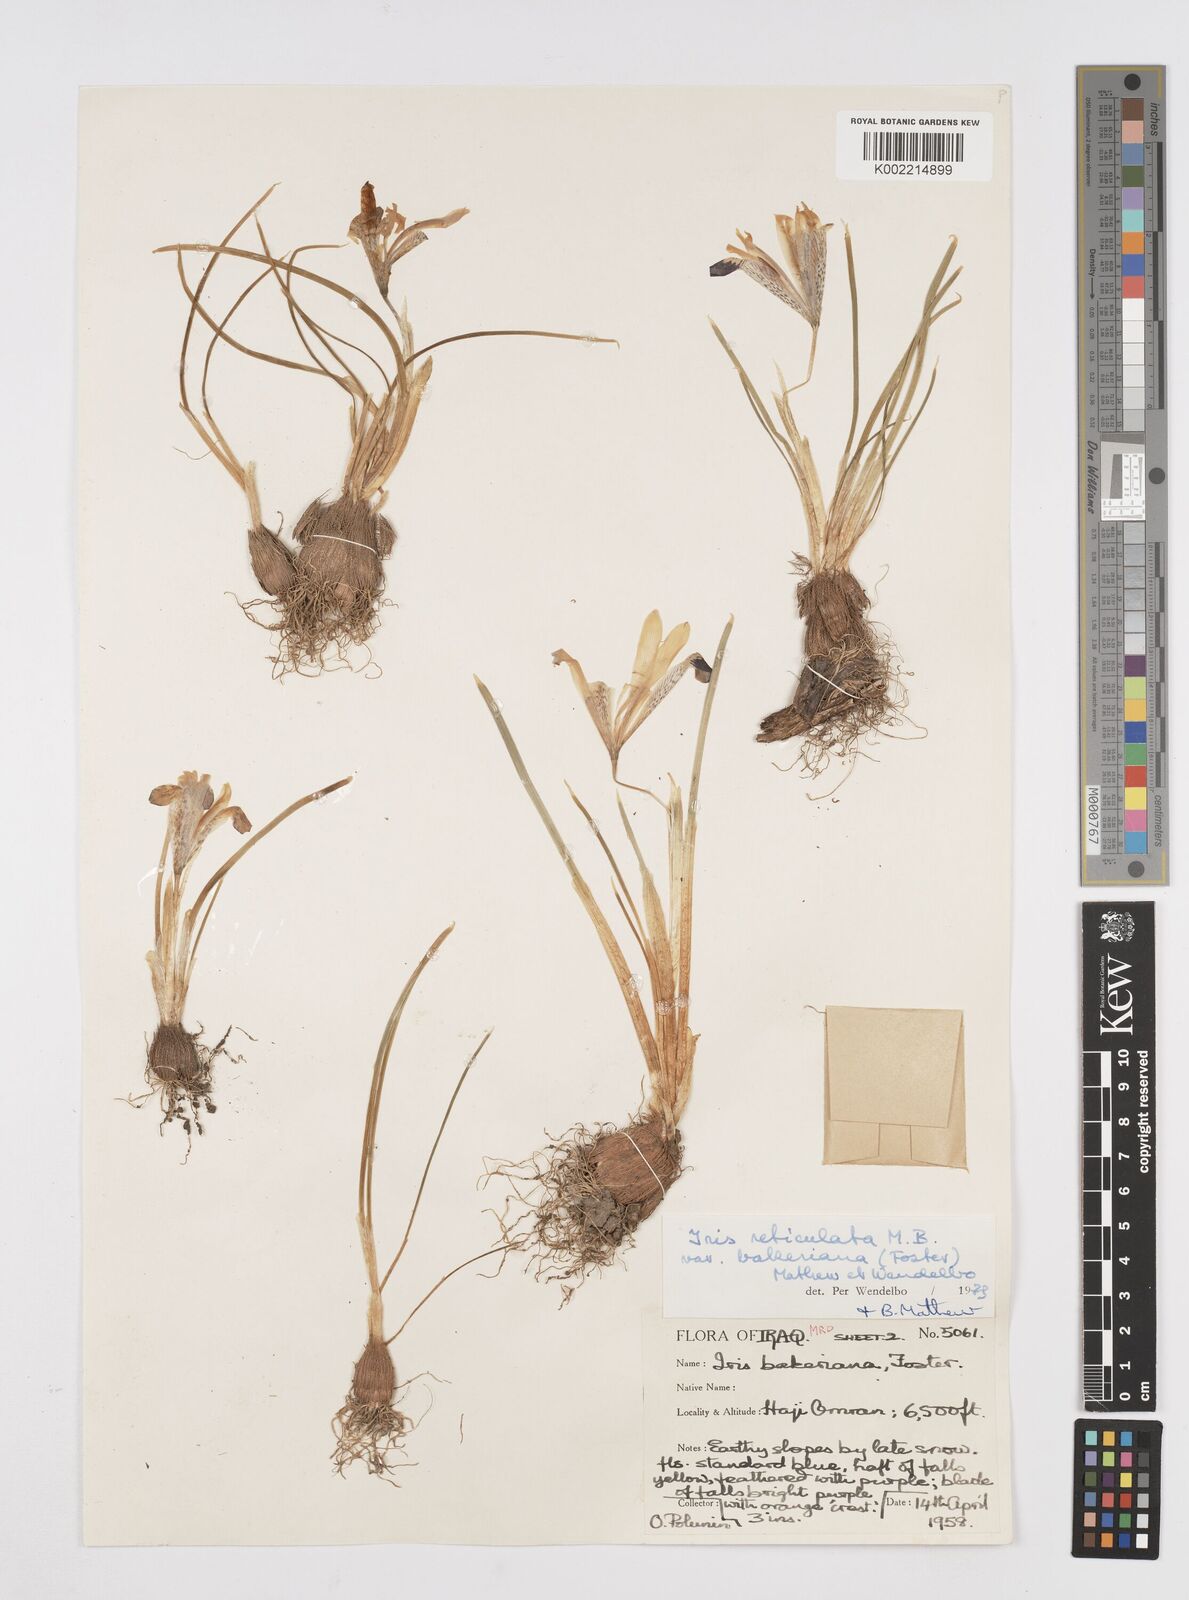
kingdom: Plantae
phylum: Tracheophyta
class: Liliopsida
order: Asparagales
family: Iridaceae
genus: Iris
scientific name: Iris reticulata
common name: Netted iris
